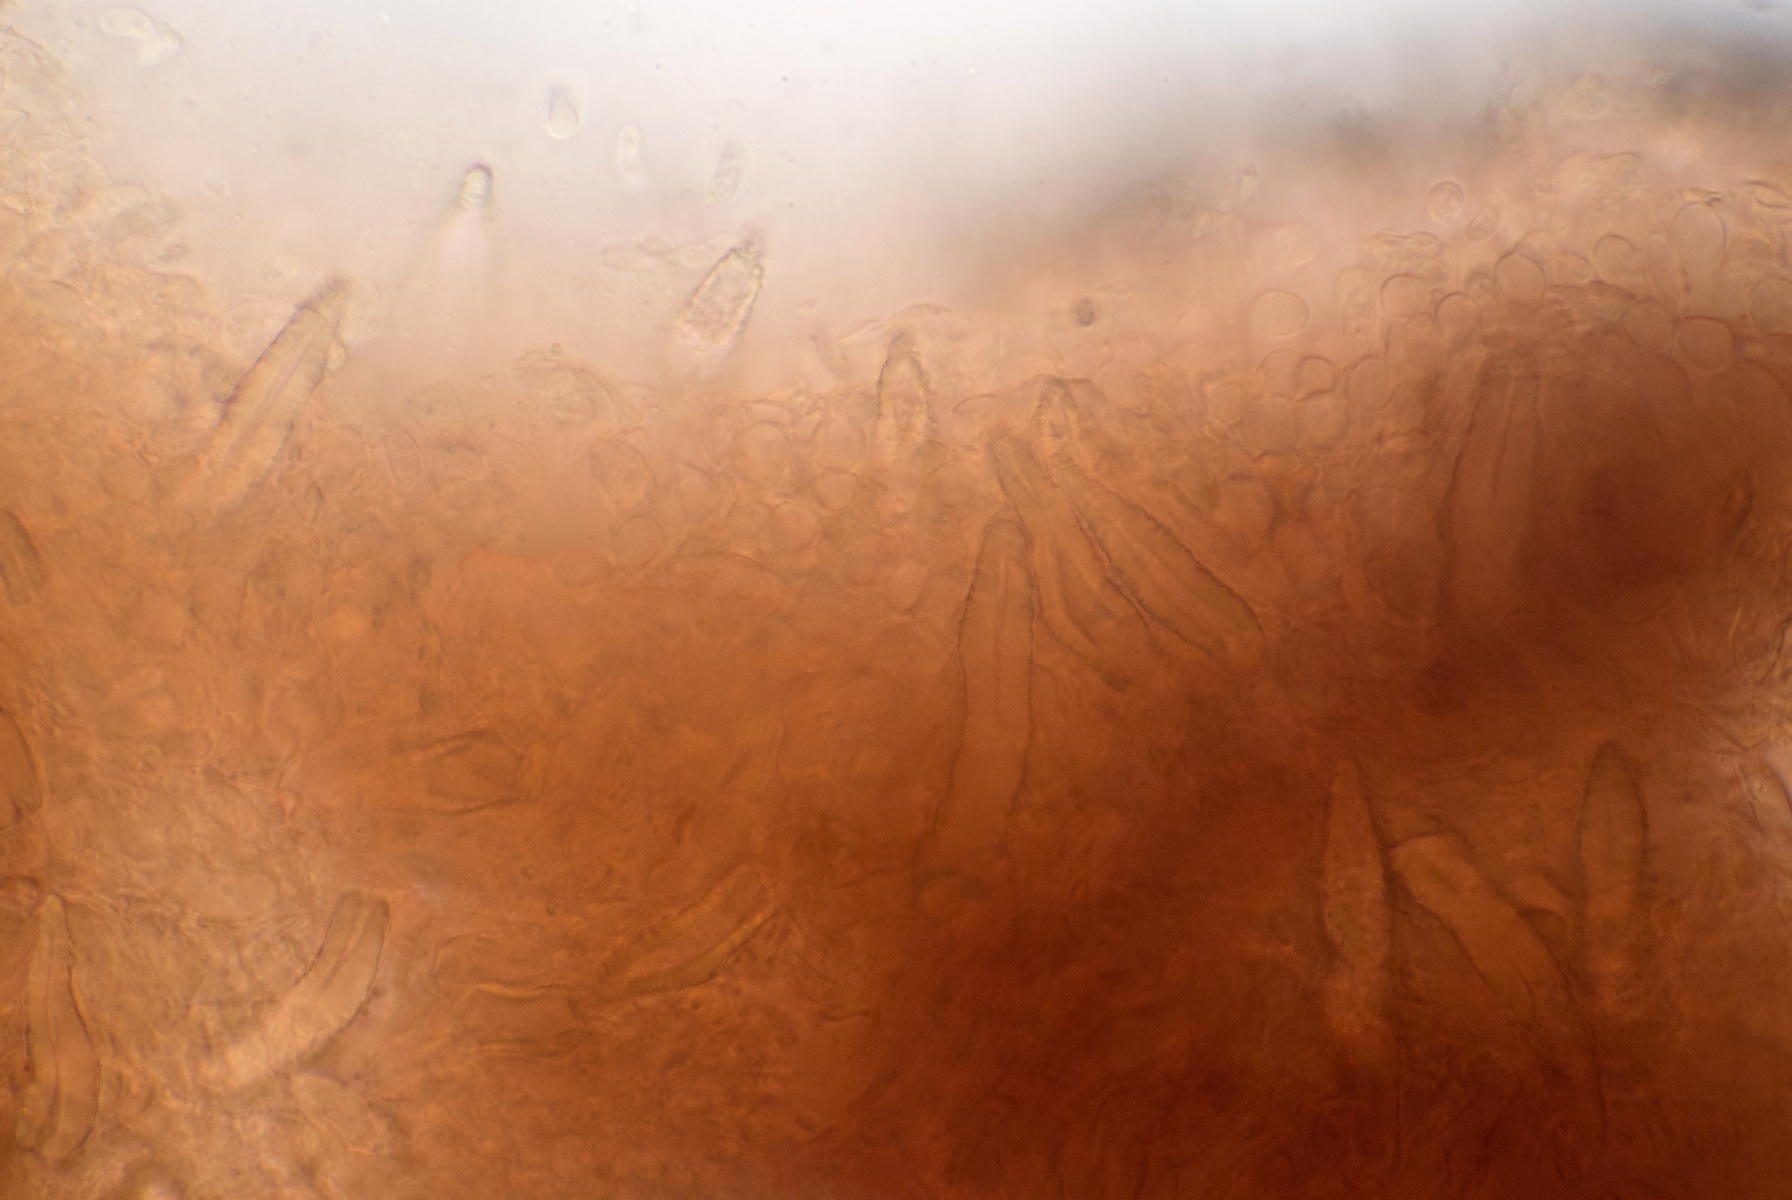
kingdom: Fungi
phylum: Basidiomycota
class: Agaricomycetes
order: Russulales
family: Peniophoraceae
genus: Peniophora
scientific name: Peniophora cinerea
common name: grå voksskind
